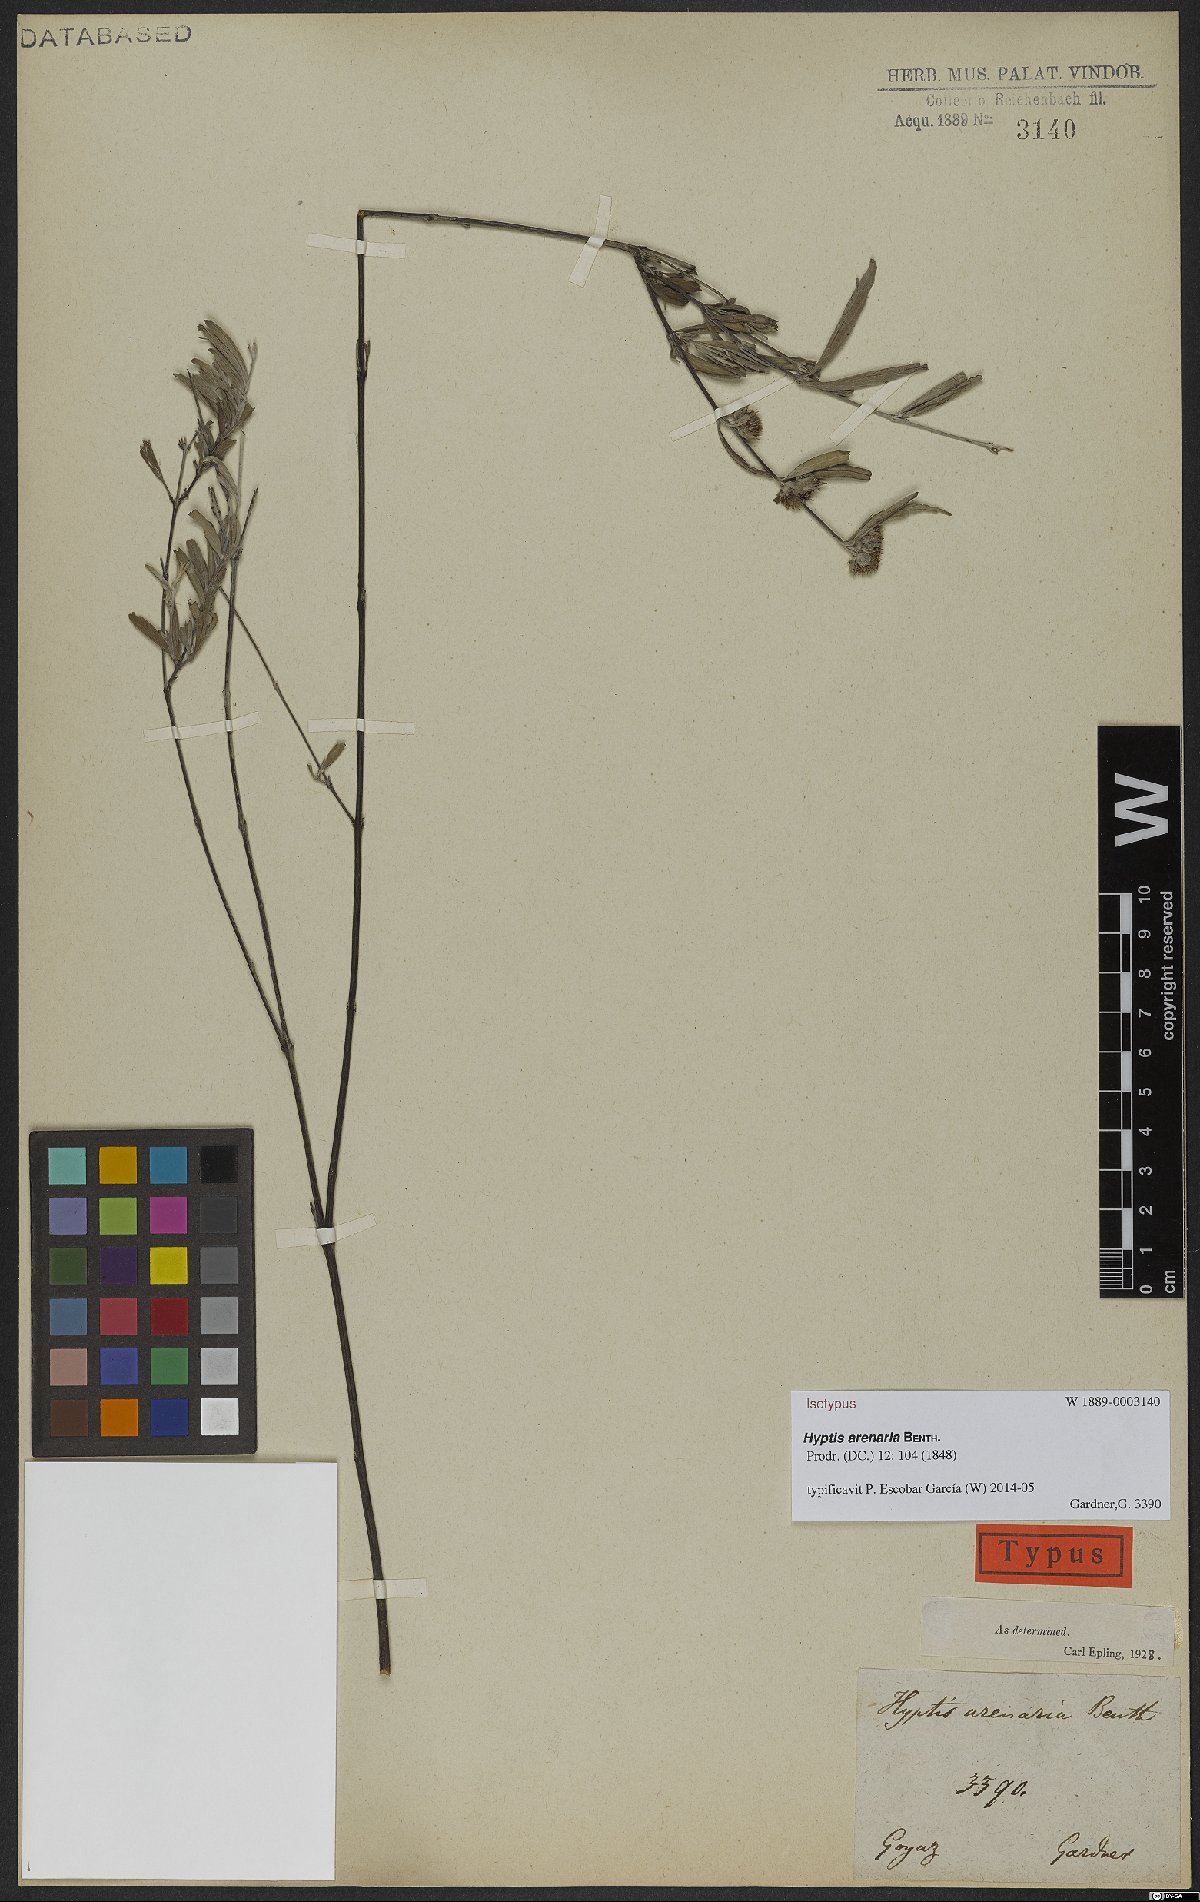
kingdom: Plantae
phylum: Tracheophyta
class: Magnoliopsida
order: Lamiales
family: Lamiaceae
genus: Hyptis
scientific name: Hyptis arenaria
